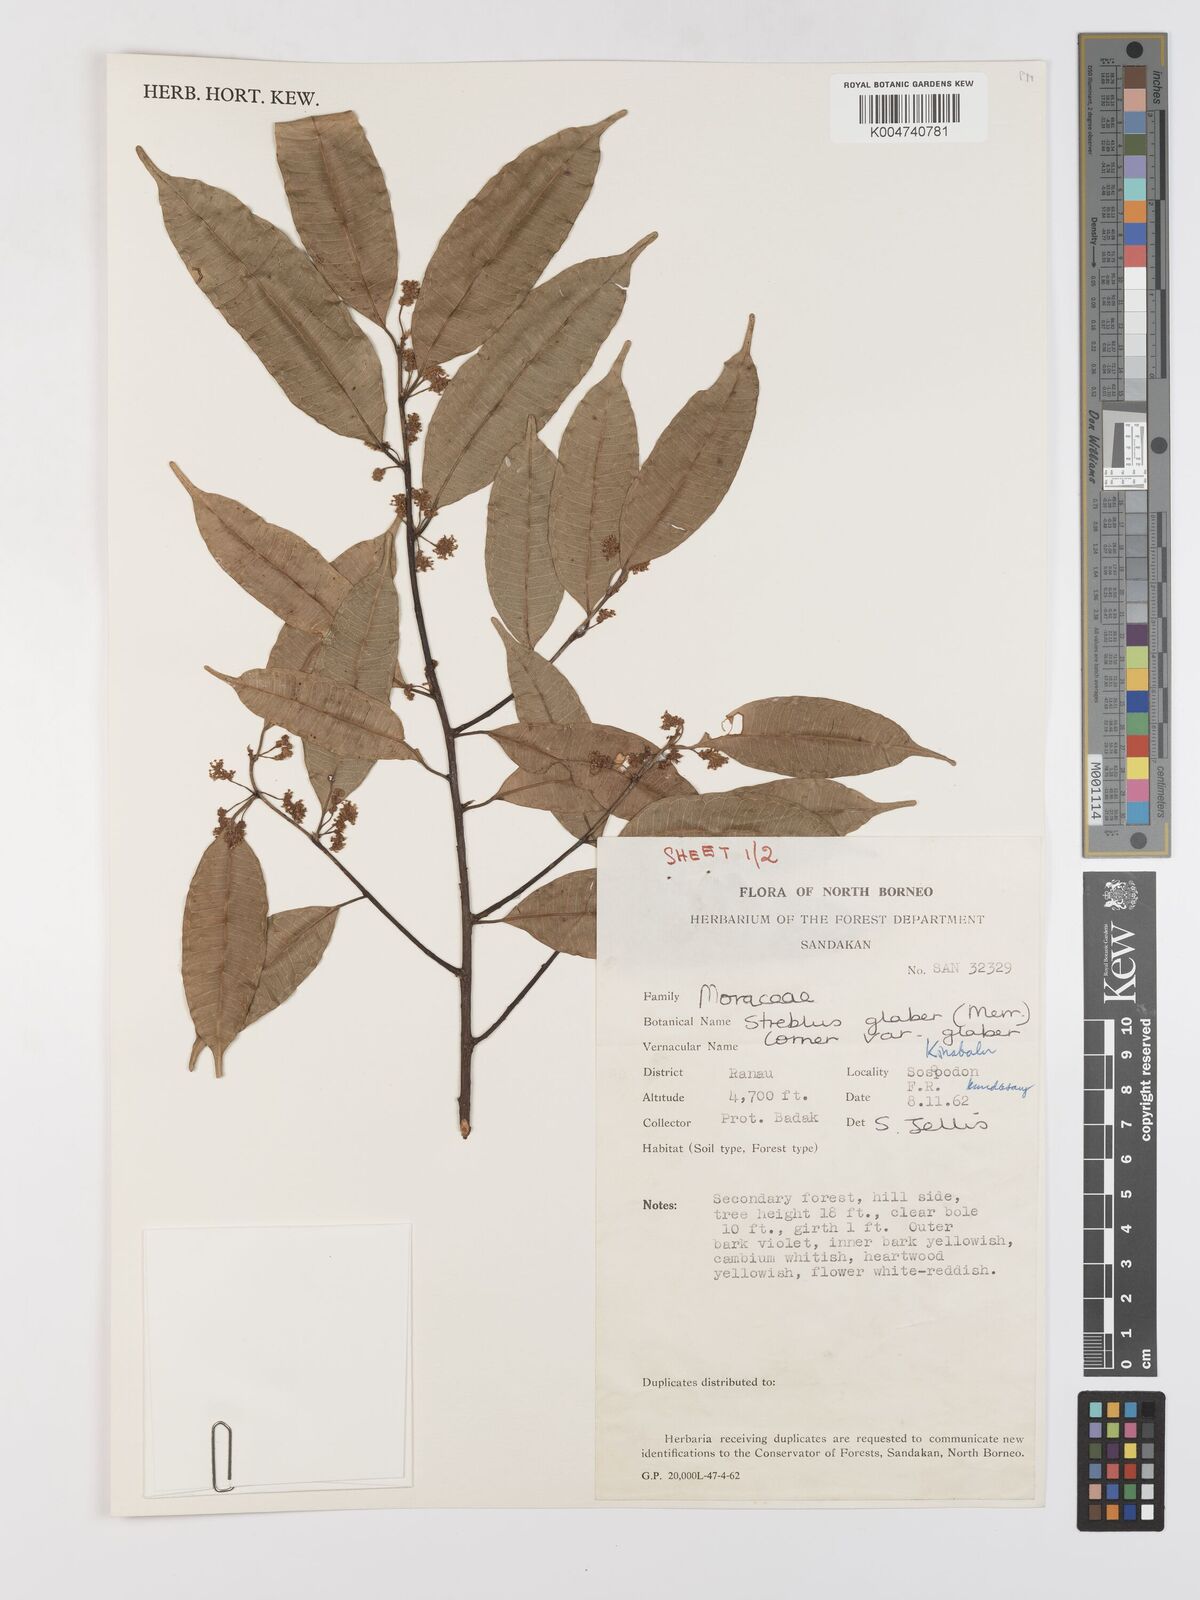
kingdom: Plantae
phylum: Tracheophyta
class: Magnoliopsida
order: Rosales
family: Moraceae
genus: Paratrophis
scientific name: Paratrophis glabra
